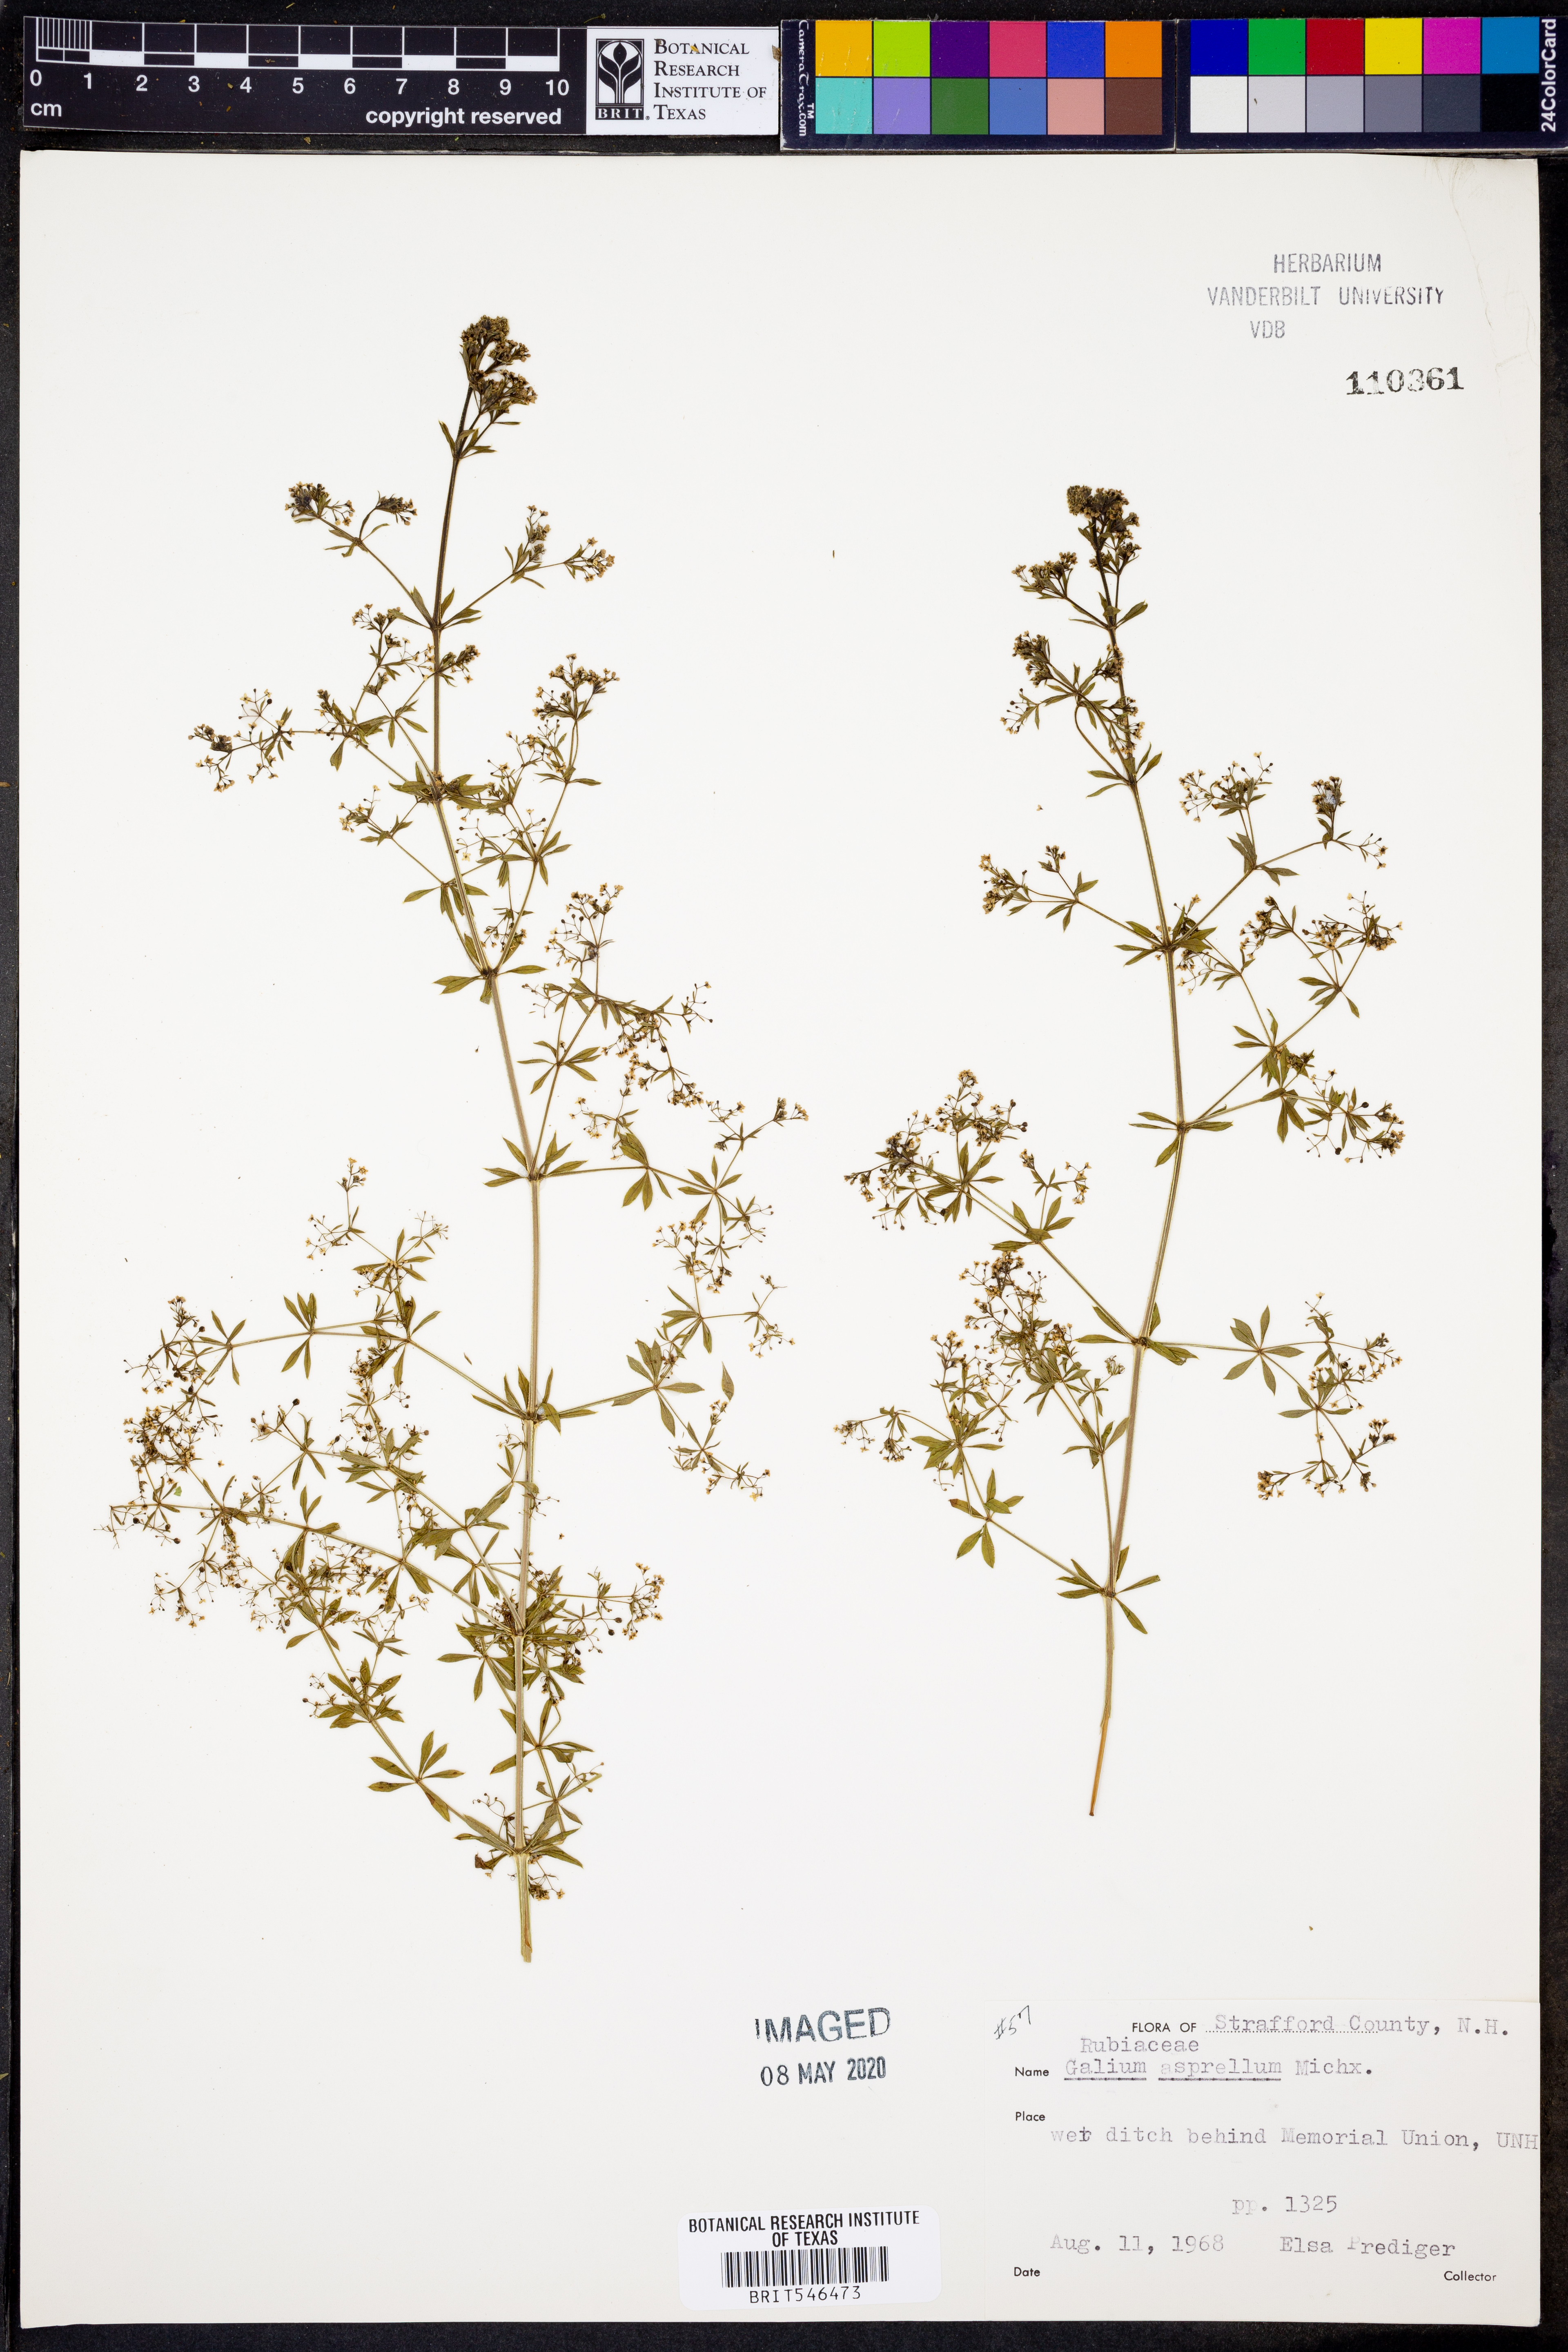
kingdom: Plantae
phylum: Tracheophyta
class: Magnoliopsida
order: Gentianales
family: Rubiaceae
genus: Galium
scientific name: Galium asprellum
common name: Rough bedstraw
